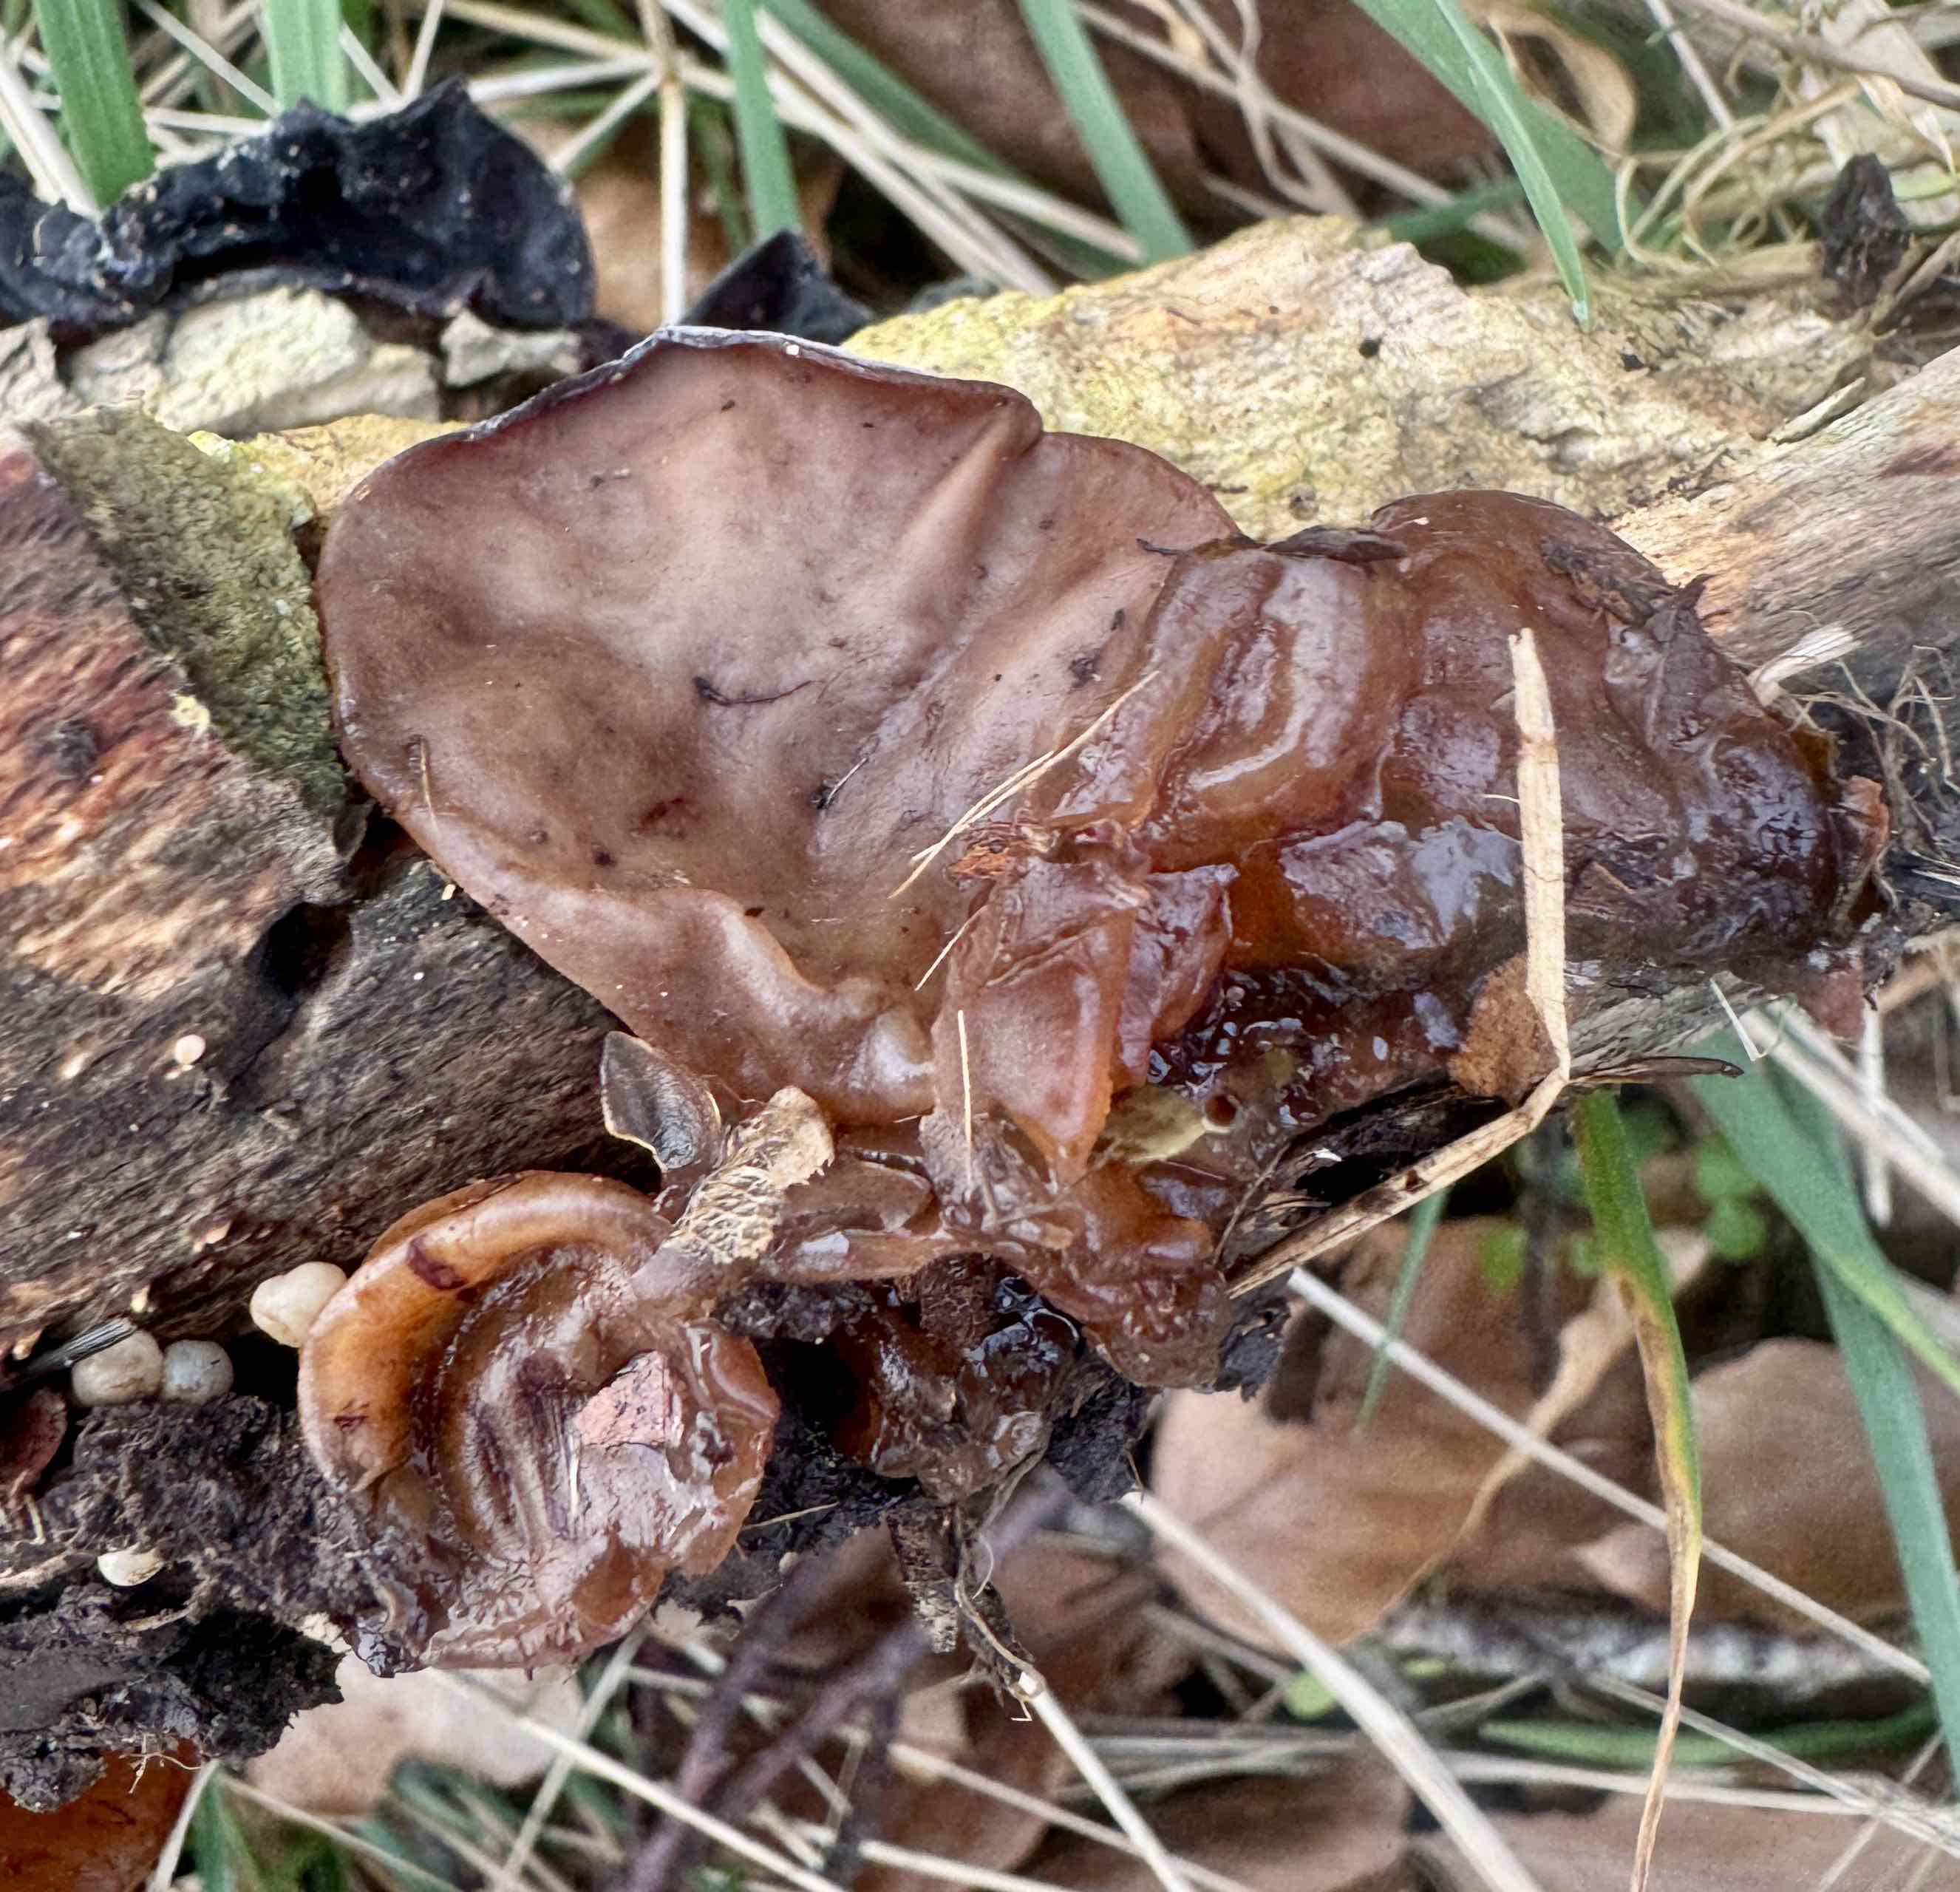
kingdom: Fungi
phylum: Basidiomycota
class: Agaricomycetes
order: Auriculariales
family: Auriculariaceae
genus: Auricularia
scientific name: Auricularia auricula-judae
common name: almindelig judasøre
